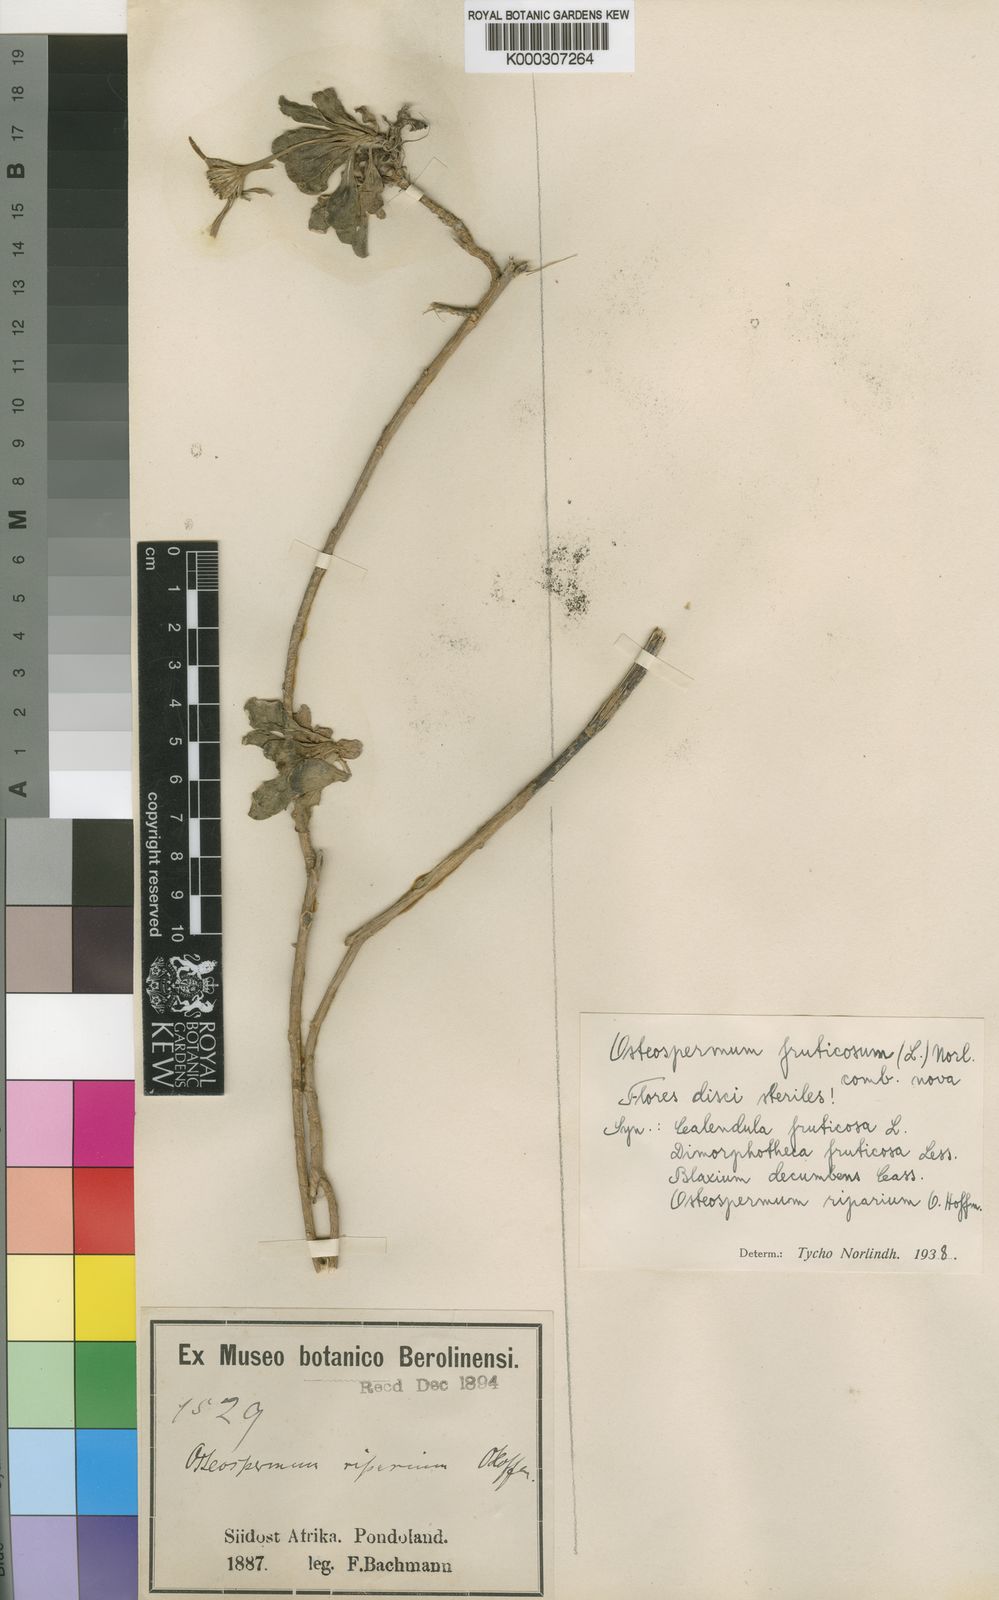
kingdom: Plantae
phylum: Tracheophyta
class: Magnoliopsida
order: Asterales
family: Asteraceae
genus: Osteospermum
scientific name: Osteospermum fruticosum
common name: Shrubby daisybush
